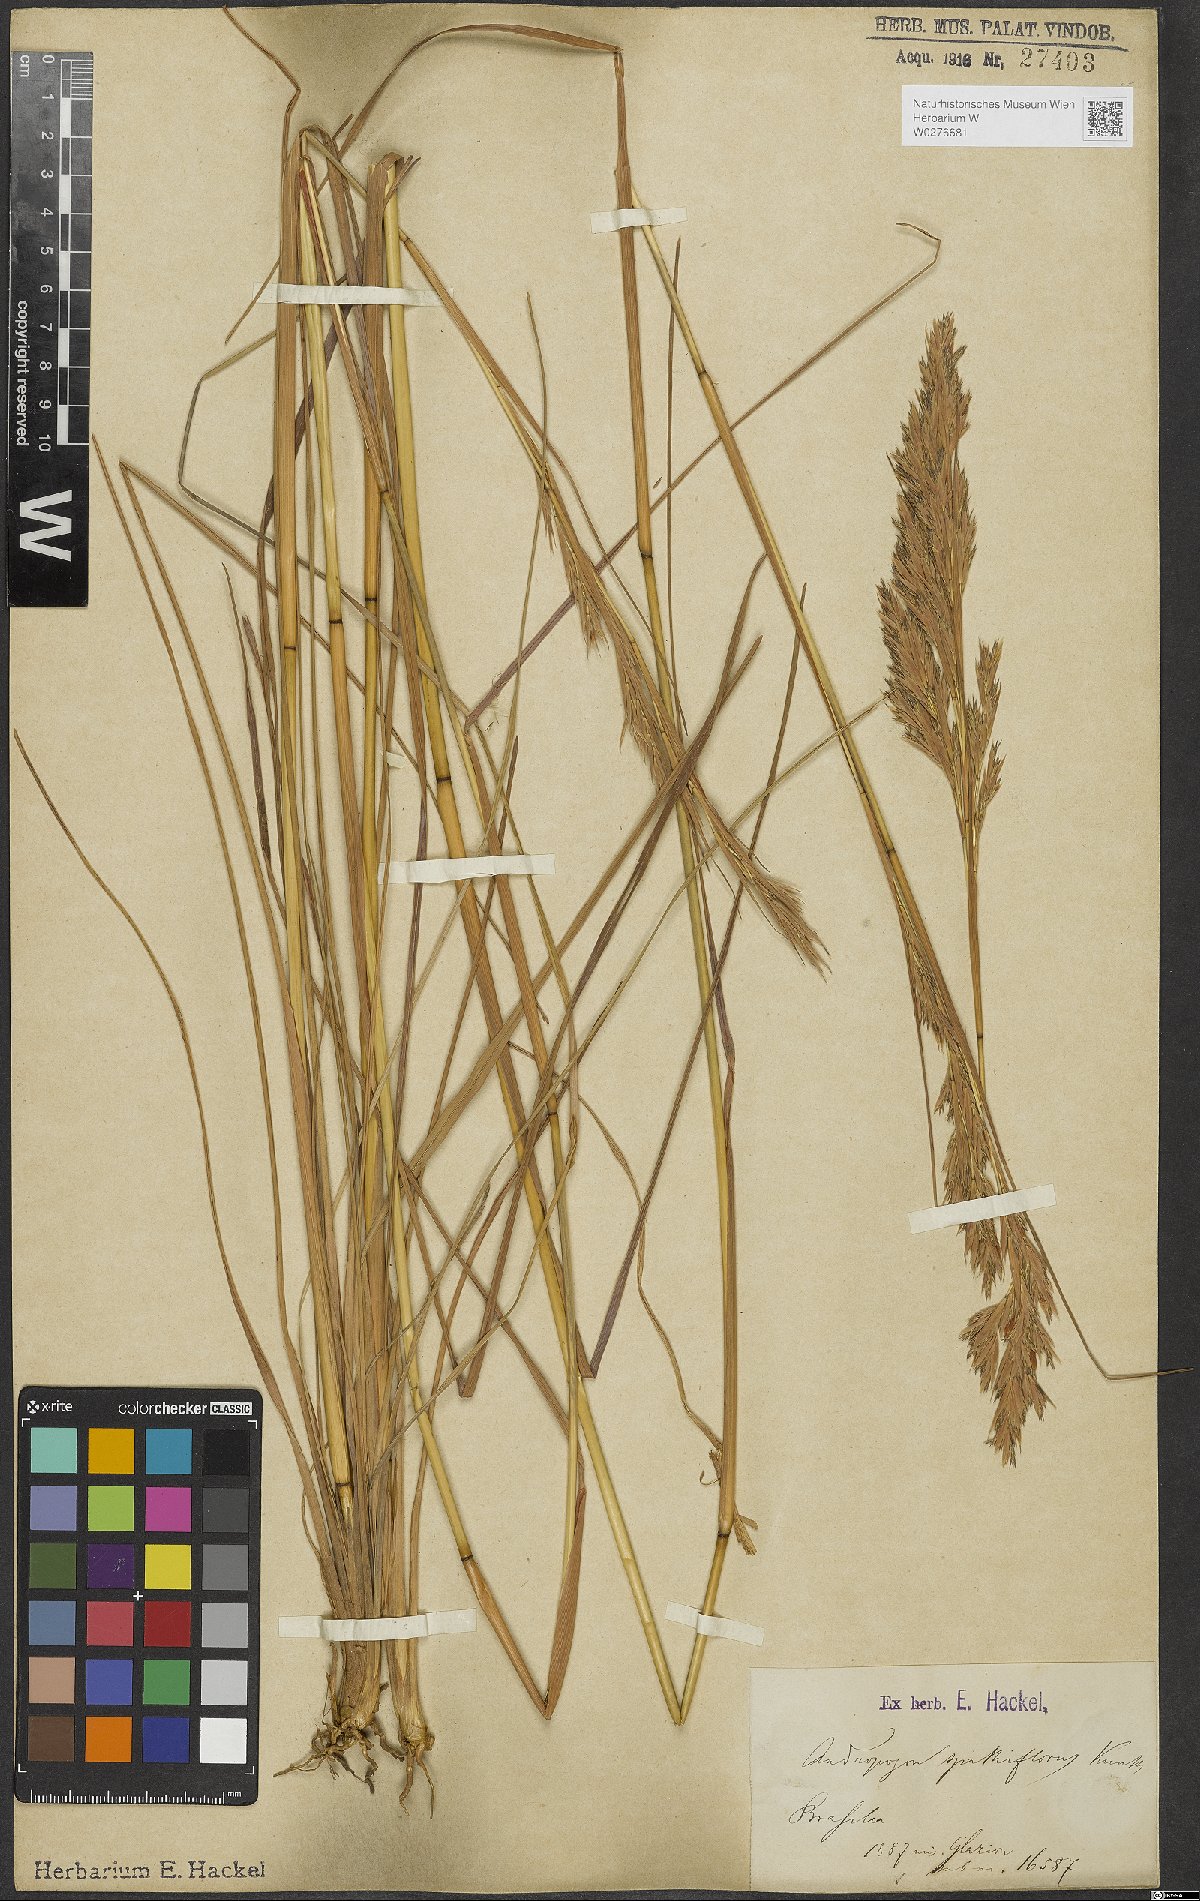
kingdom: Plantae
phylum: Tracheophyta
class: Liliopsida
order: Poales
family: Poaceae
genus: Andropogon
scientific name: Andropogon virgatus
